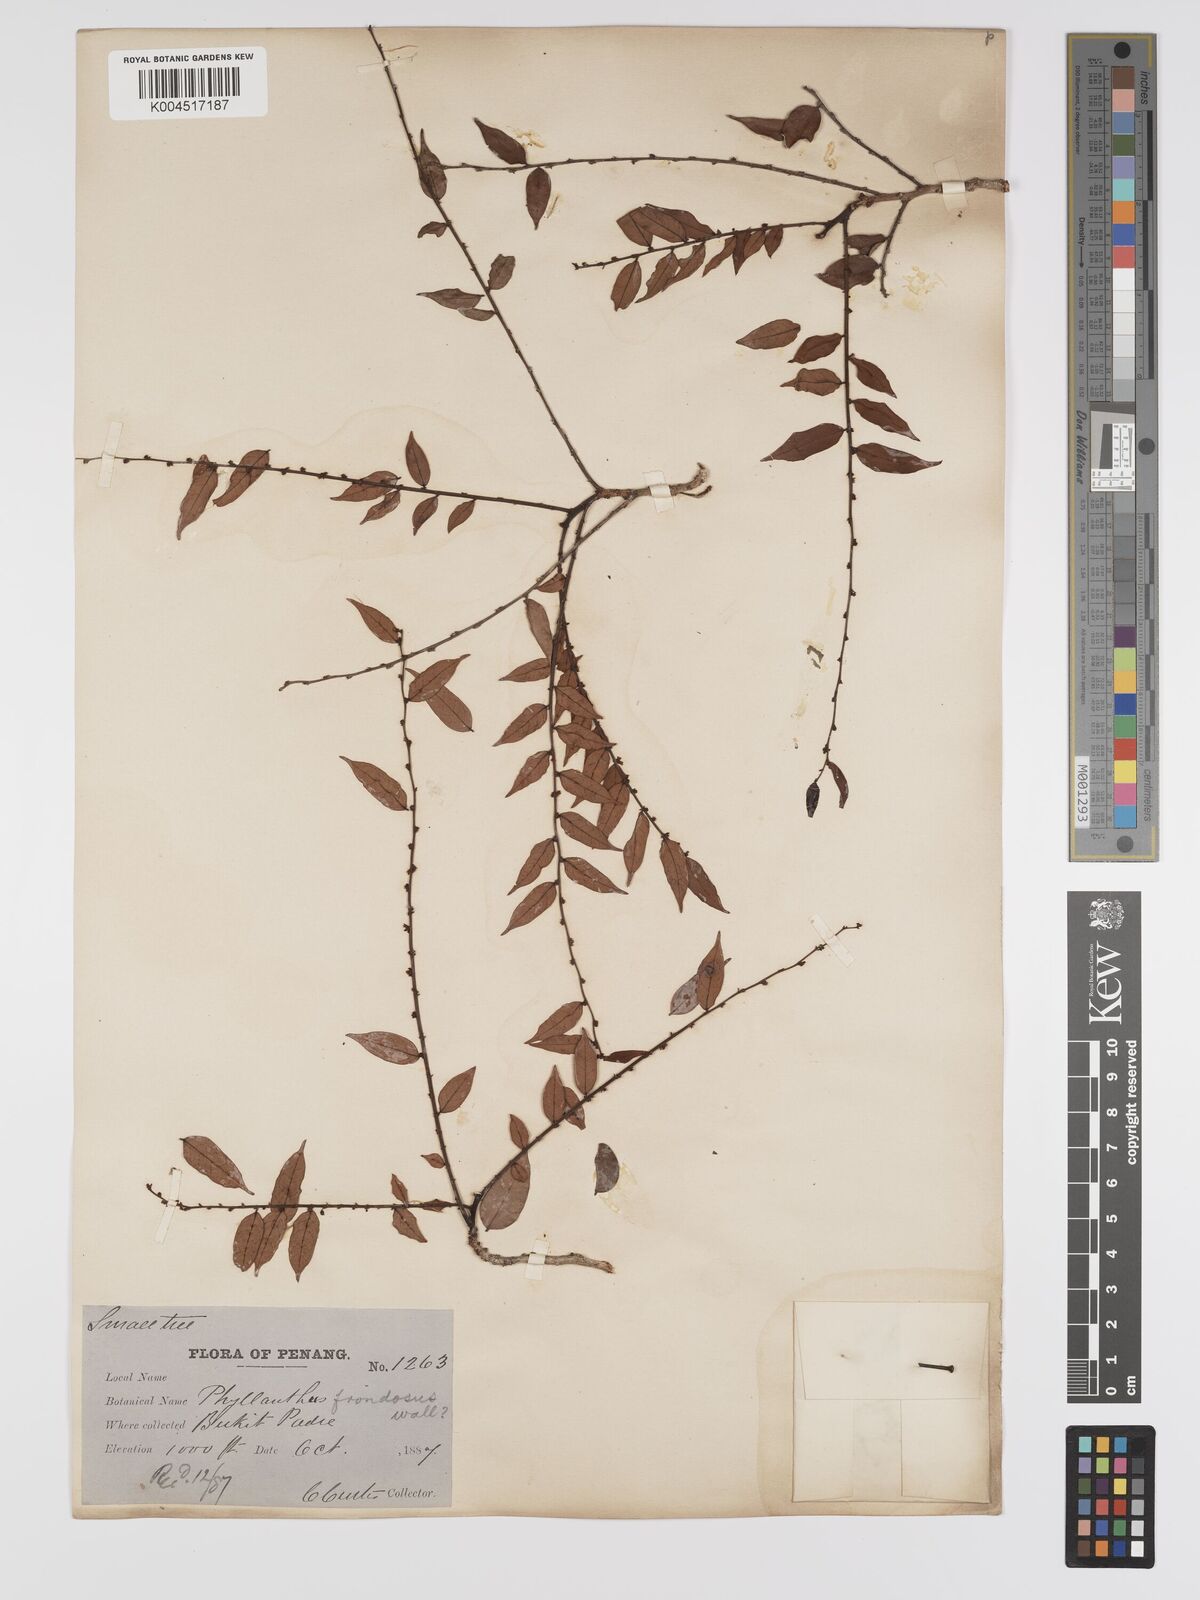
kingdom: Plantae
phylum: Tracheophyta
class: Magnoliopsida
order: Malpighiales
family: Phyllanthaceae
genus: Phyllanthus
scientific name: Phyllanthus
